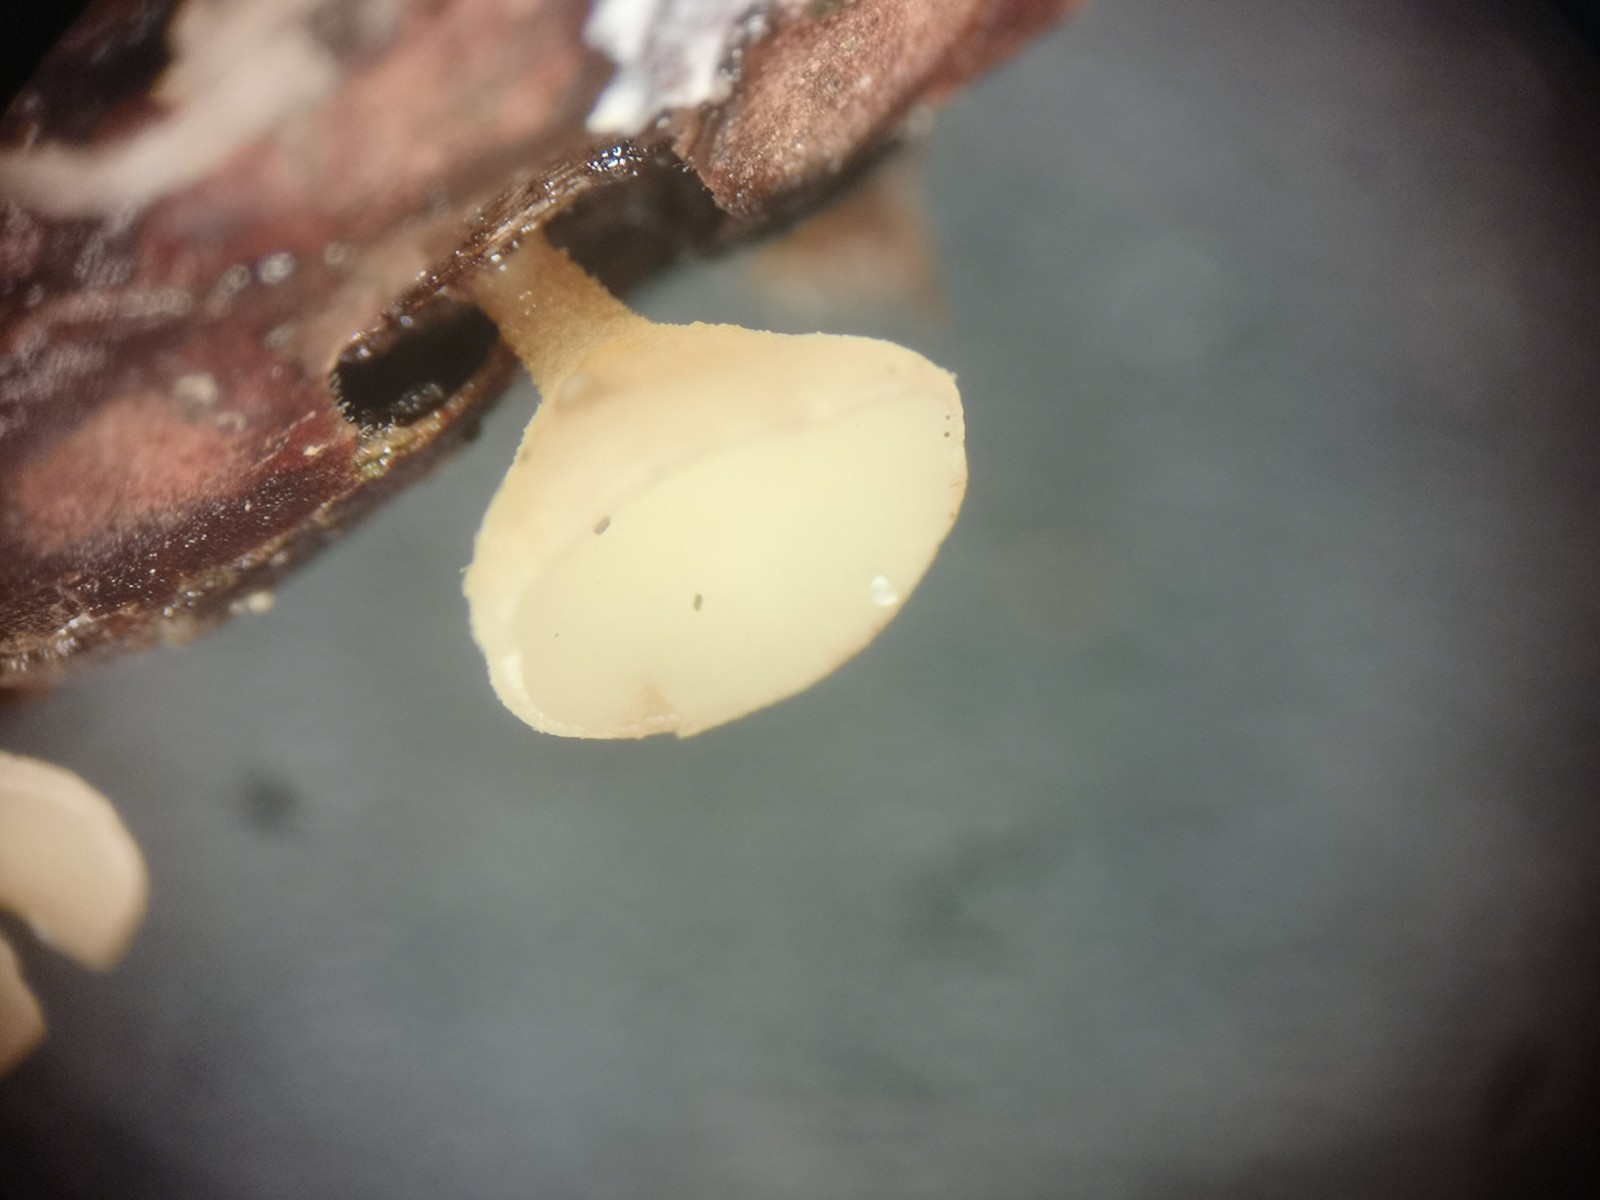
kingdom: Fungi
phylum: Ascomycota
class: Leotiomycetes
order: Helotiales
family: Helotiaceae
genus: Hymenoscyphus
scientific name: Hymenoscyphus imberbis
